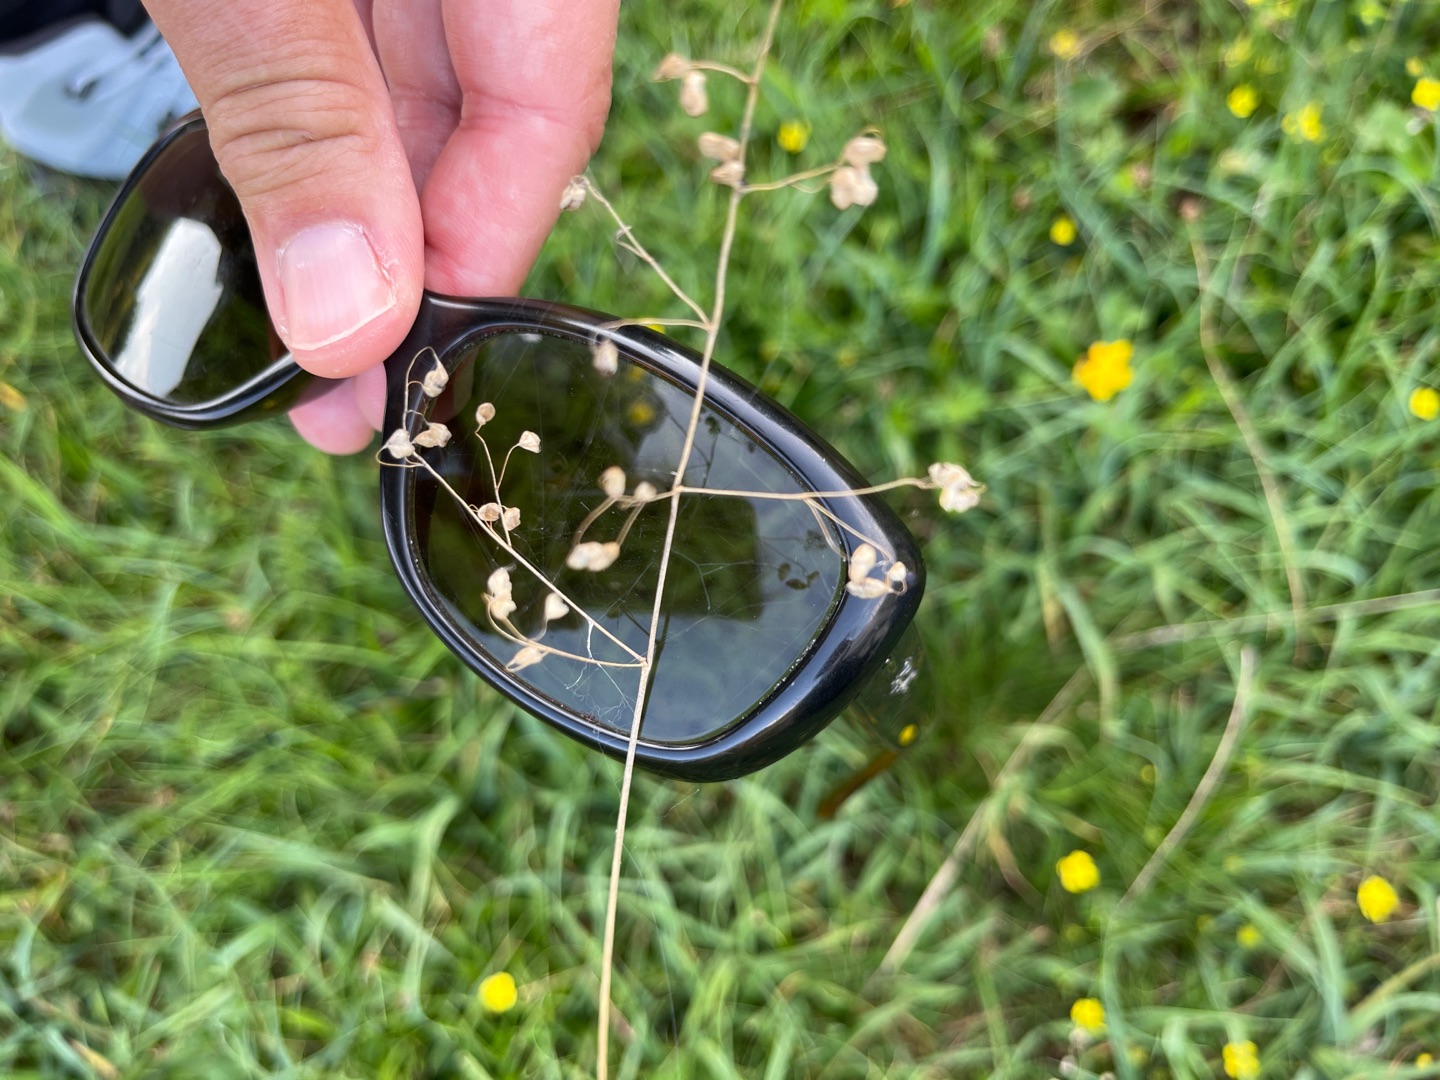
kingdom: Plantae
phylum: Tracheophyta
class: Liliopsida
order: Poales
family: Poaceae
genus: Briza
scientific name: Briza media
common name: Hjertegræs
